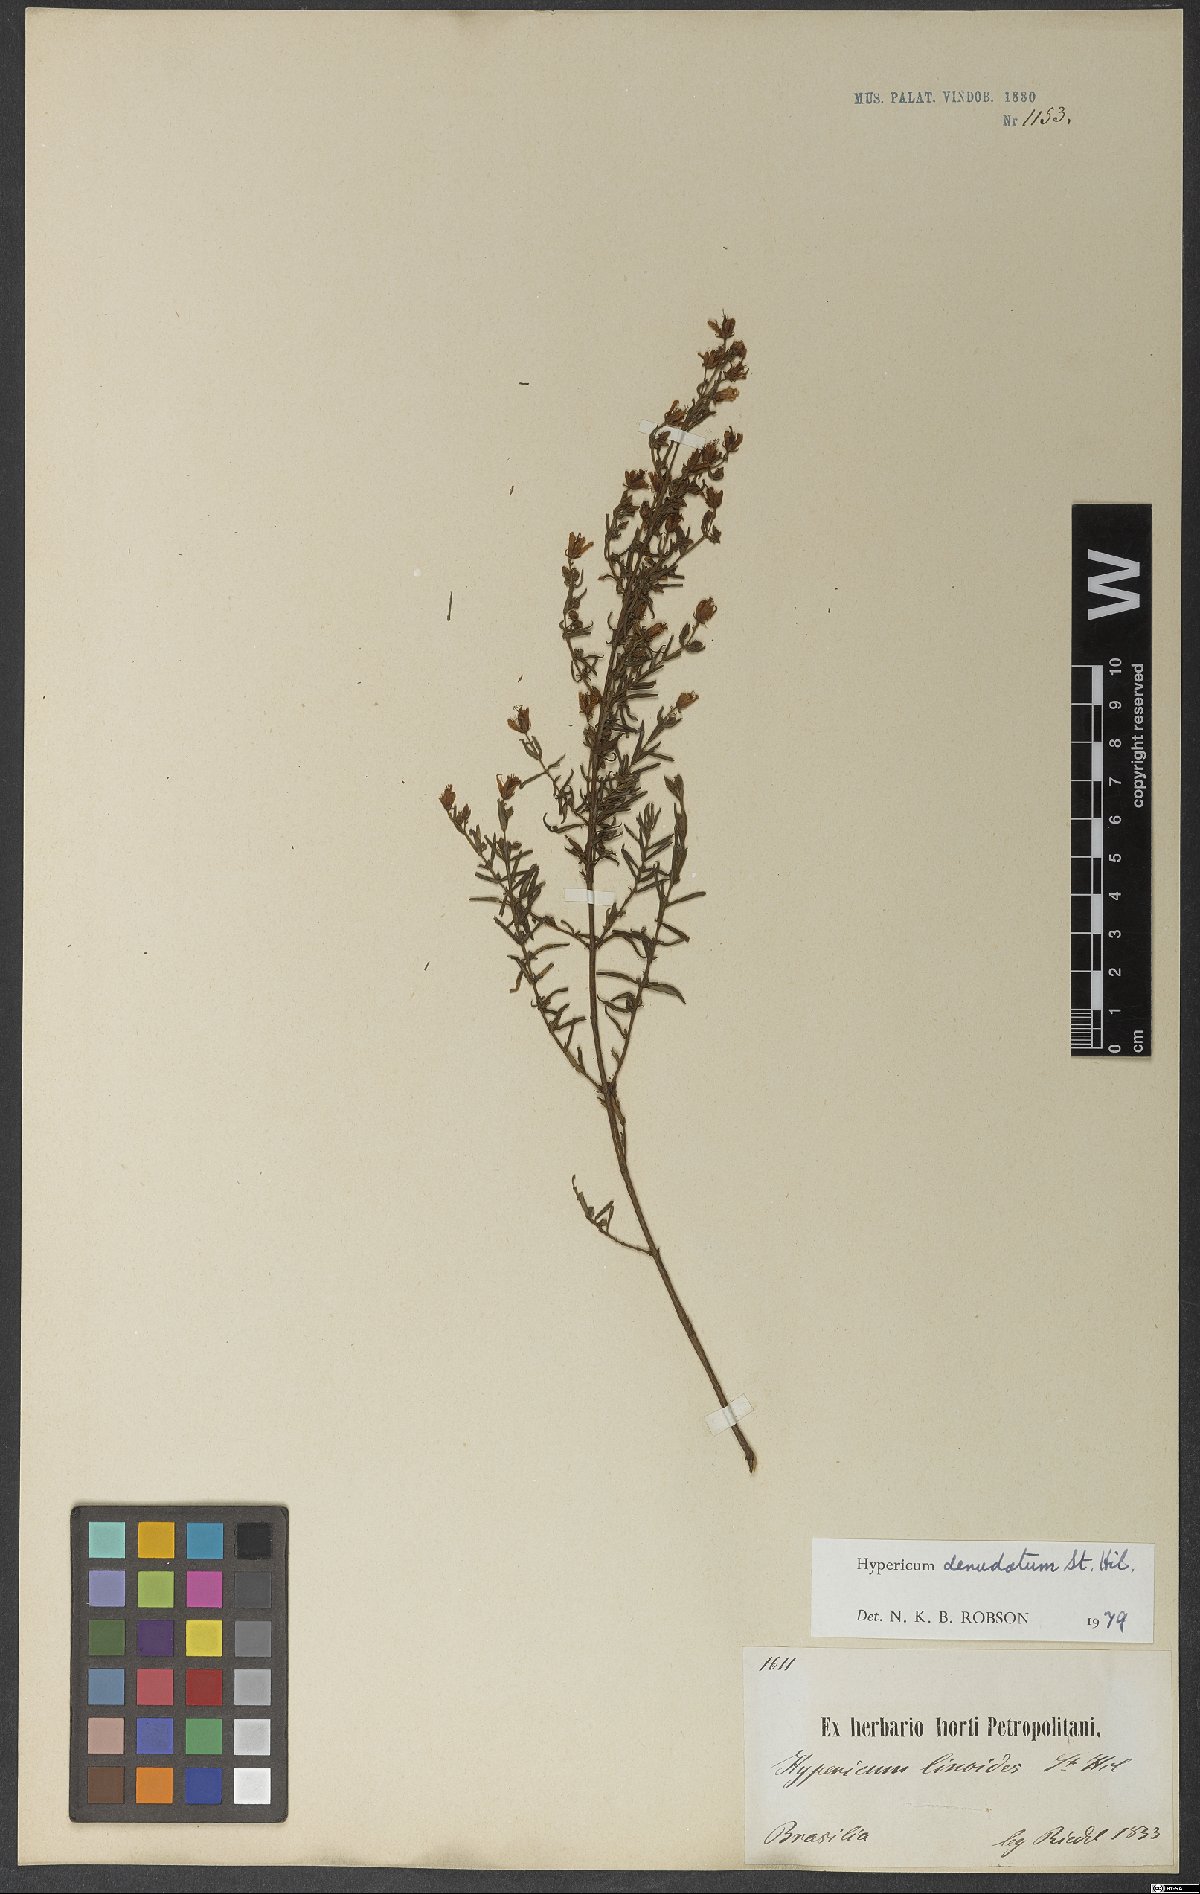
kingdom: Plantae
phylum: Tracheophyta
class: Magnoliopsida
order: Malpighiales
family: Hypericaceae
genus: Hypericum
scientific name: Hypericum denudatum
